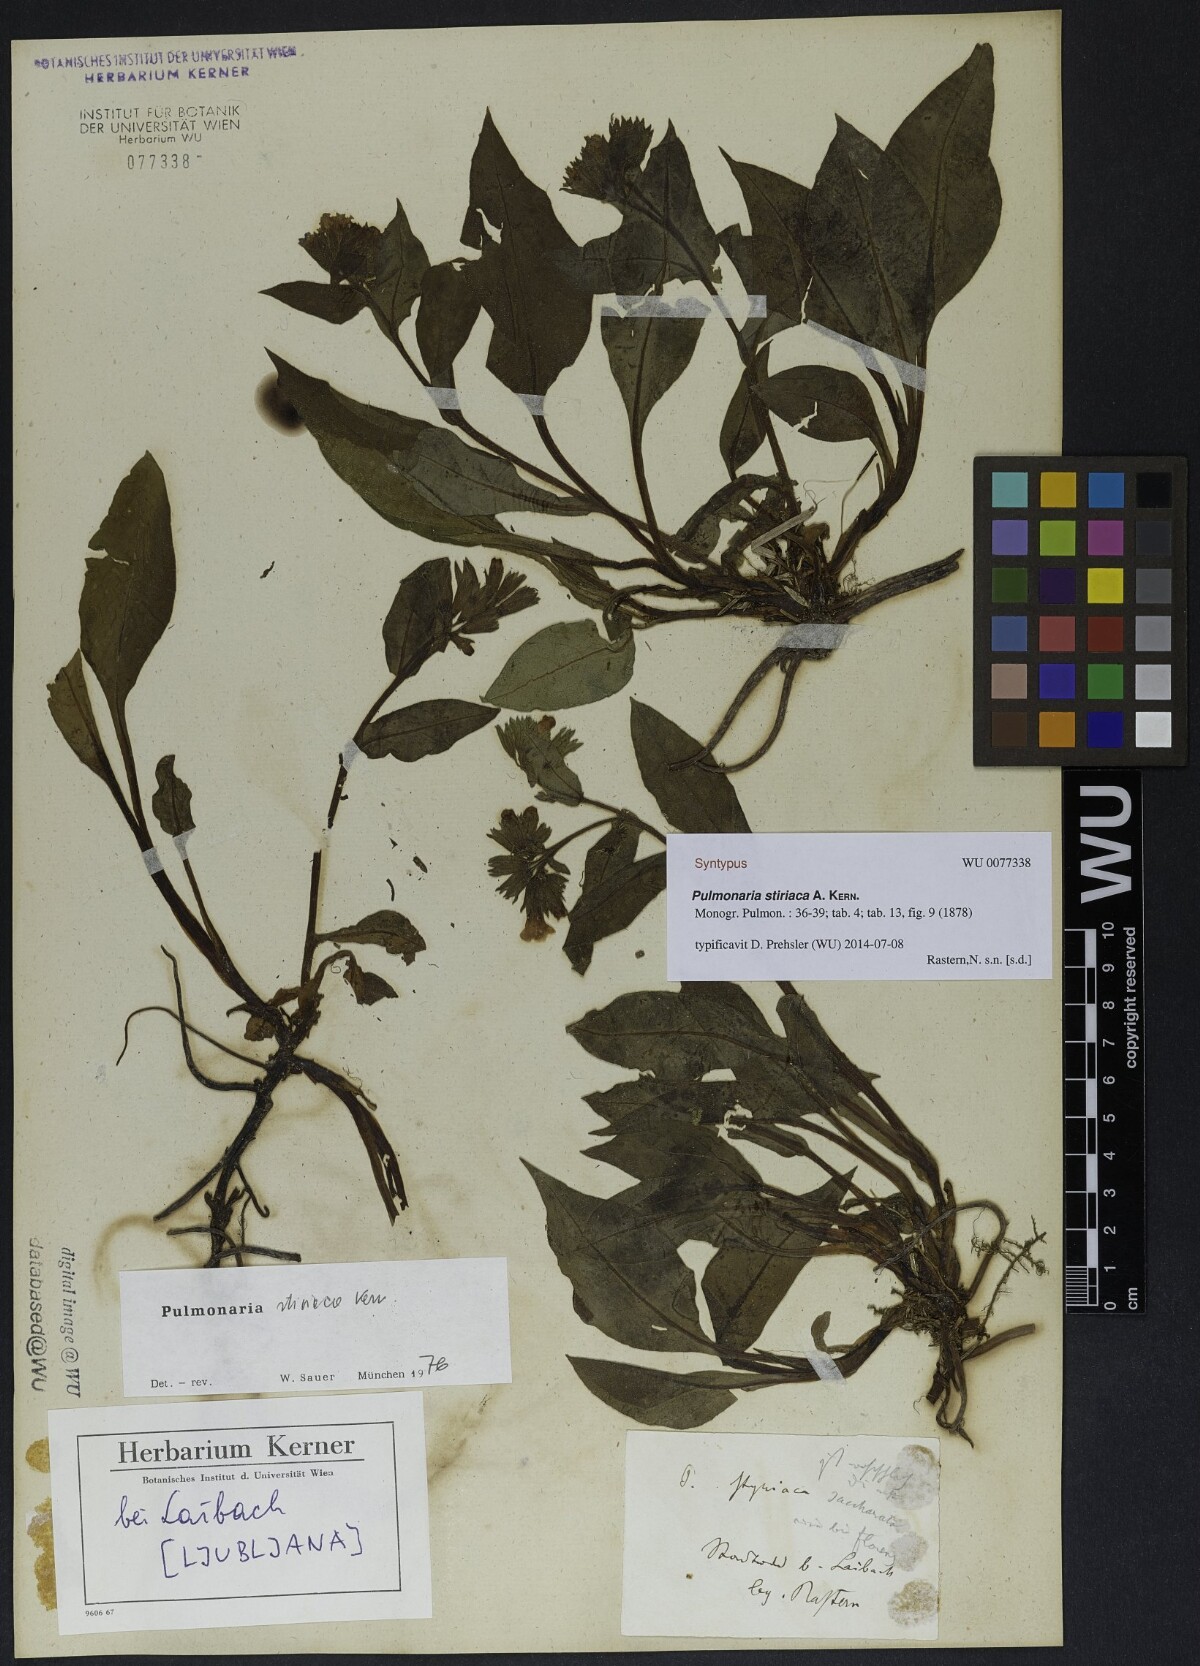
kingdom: Plantae
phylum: Tracheophyta
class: Magnoliopsida
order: Boraginales
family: Boraginaceae
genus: Pulmonaria
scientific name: Pulmonaria stiriaca
